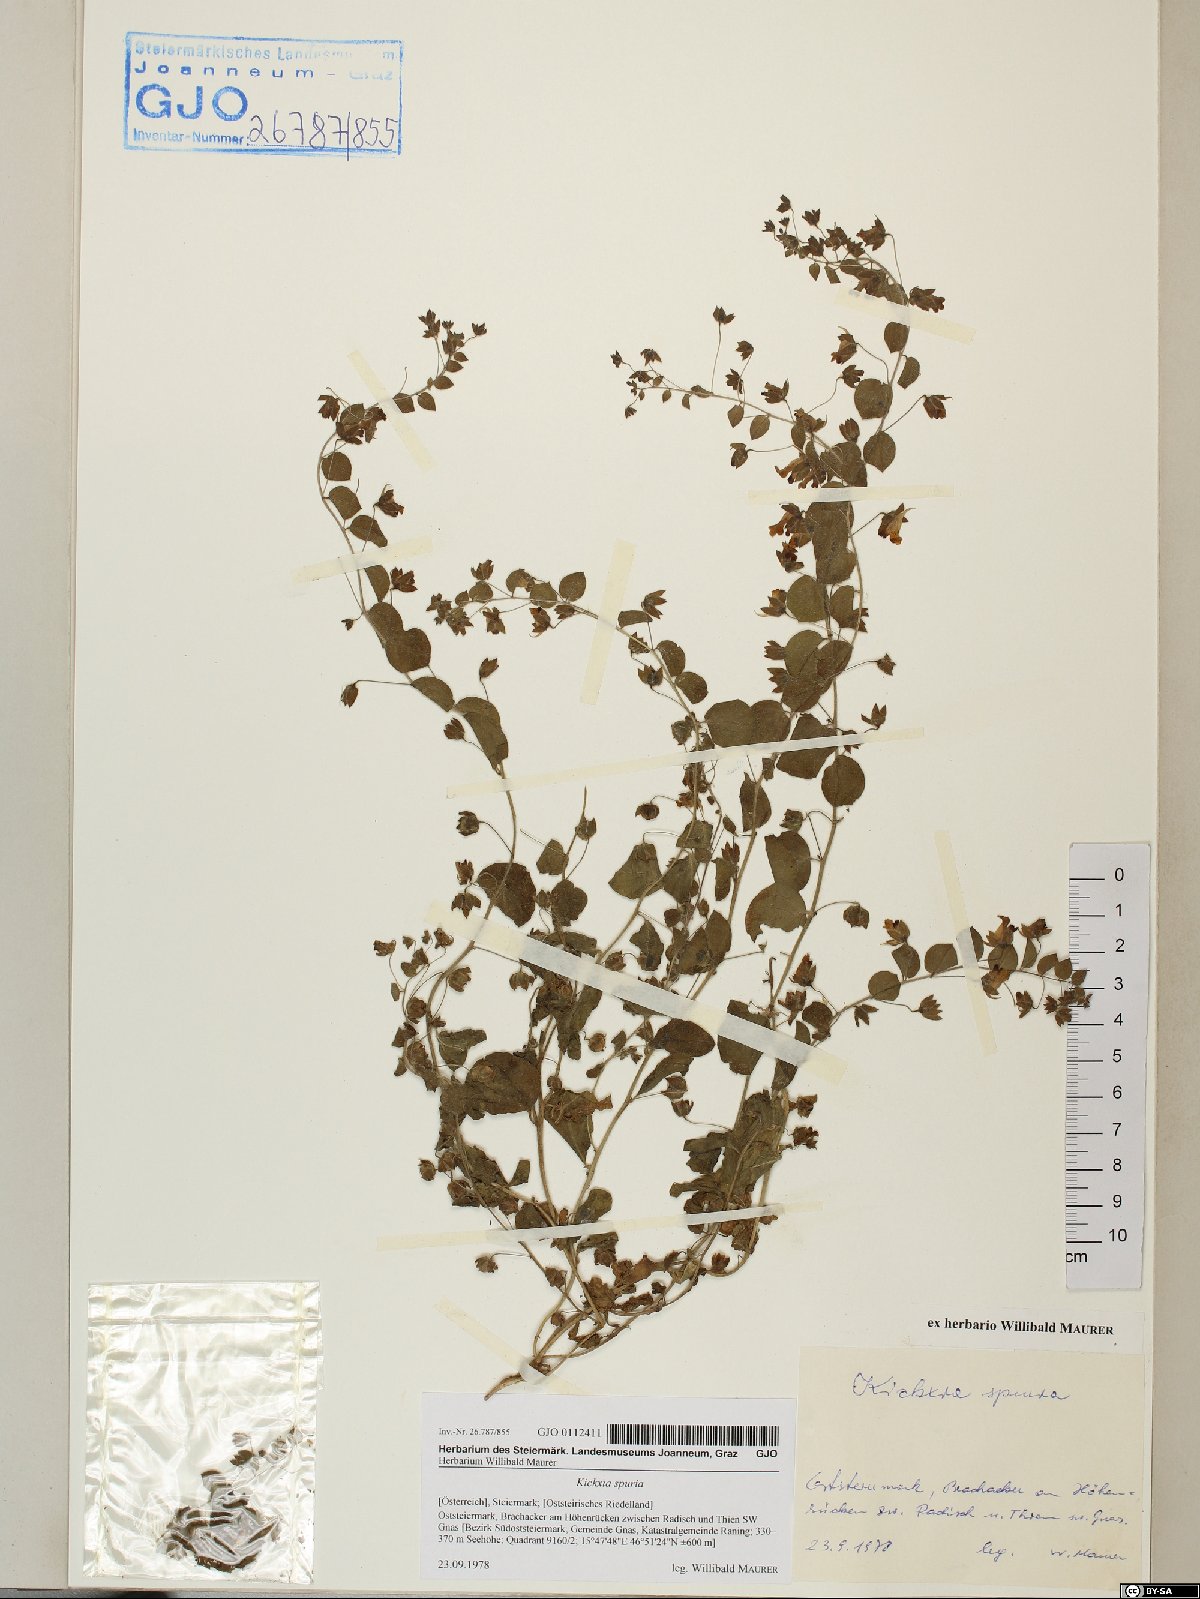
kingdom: Plantae
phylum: Tracheophyta
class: Magnoliopsida
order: Lamiales
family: Plantaginaceae
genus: Kickxia
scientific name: Kickxia spuria
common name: Round-leaved fluellen
